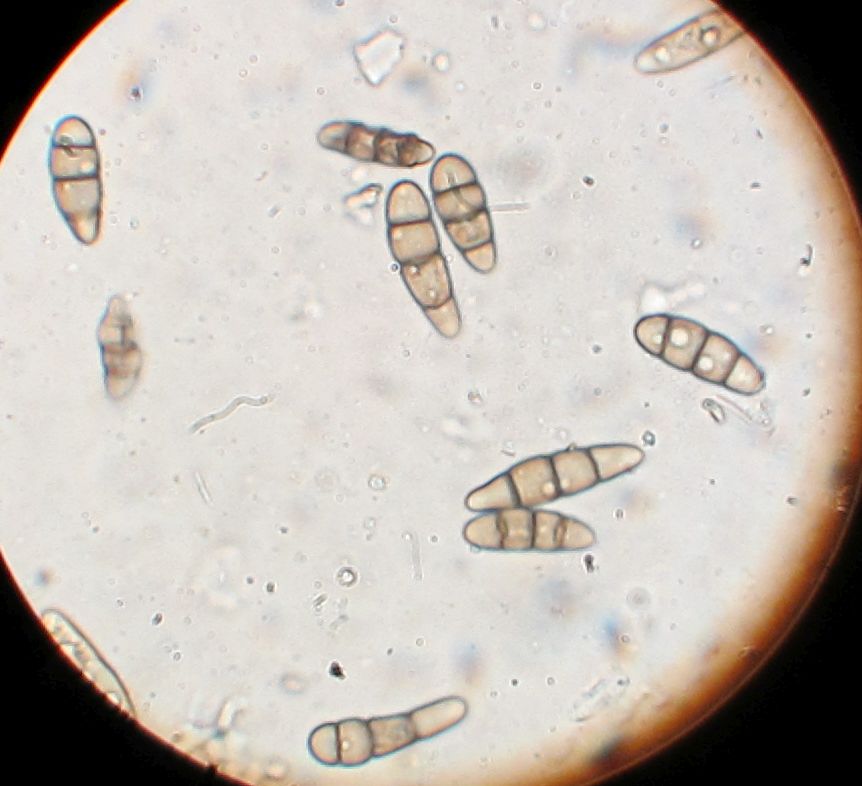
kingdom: Fungi
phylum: Ascomycota
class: Dothideomycetes
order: Hysteriales
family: Hysteriaceae
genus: Hysterium
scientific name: Hysterium acuminatum
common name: almindelig kulmund
